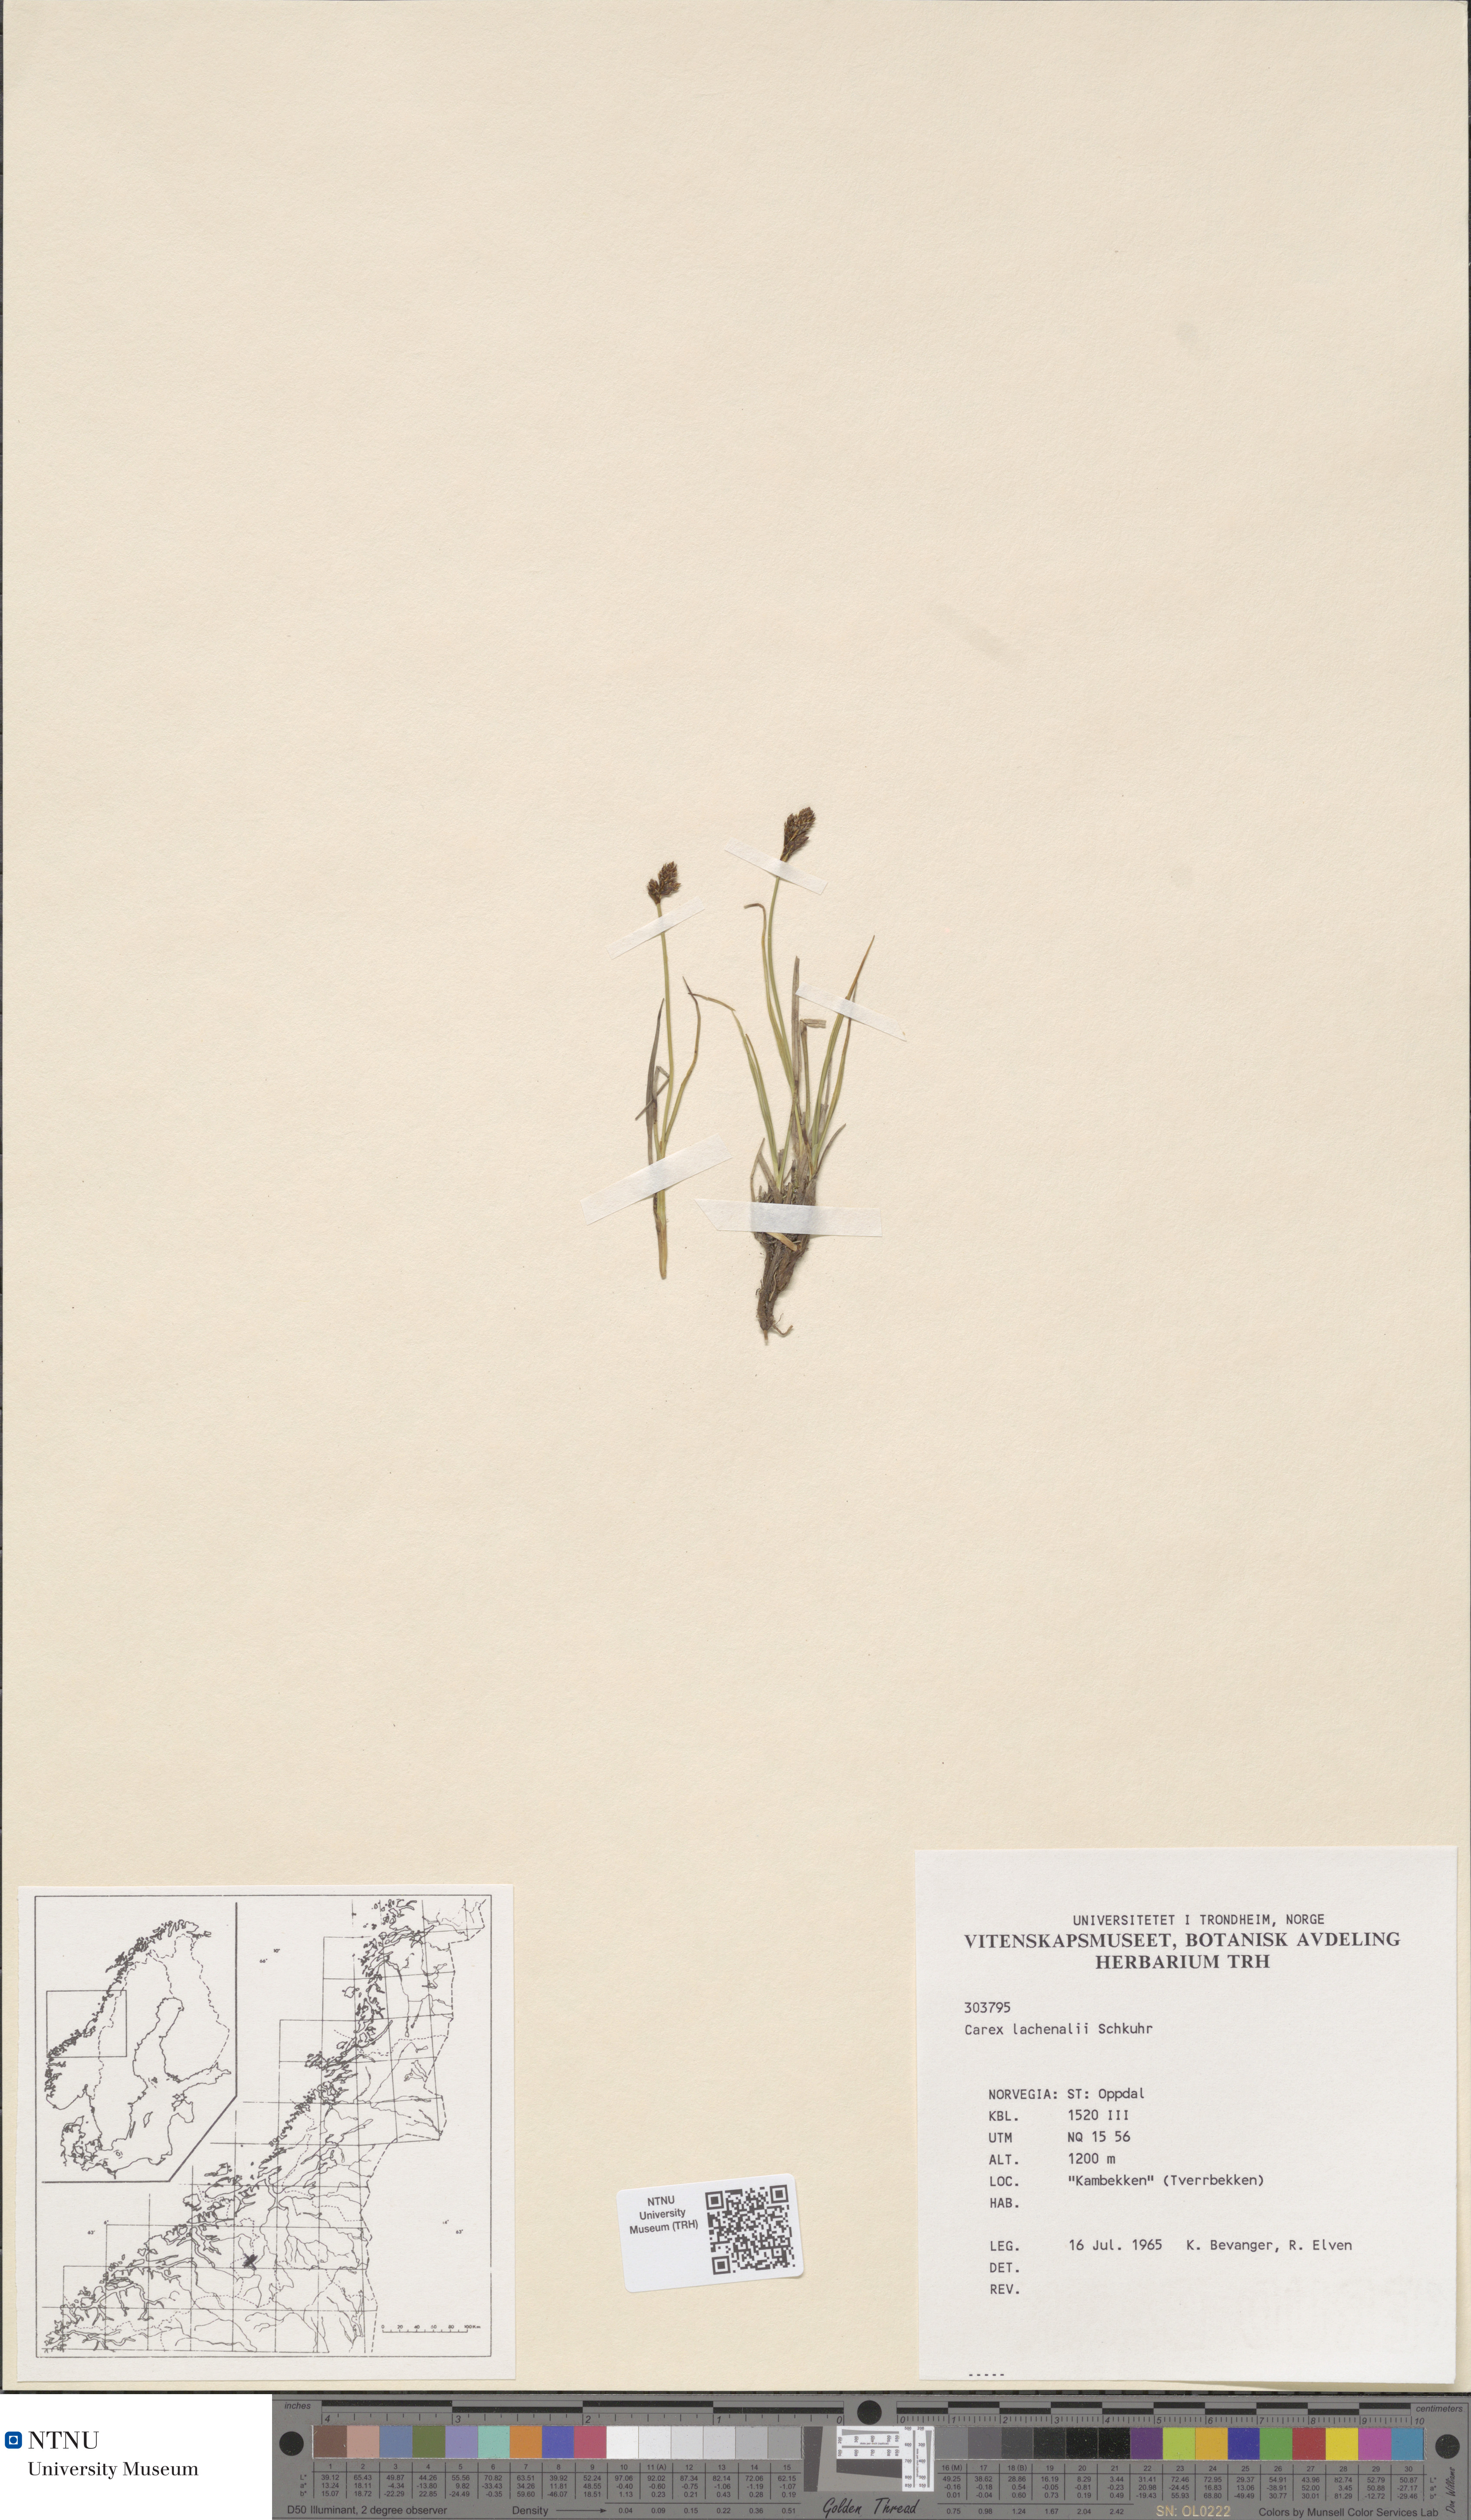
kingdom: Plantae
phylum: Tracheophyta
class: Liliopsida
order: Poales
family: Cyperaceae
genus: Carex
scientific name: Carex lachenalii
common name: Hare's-foot sedge
